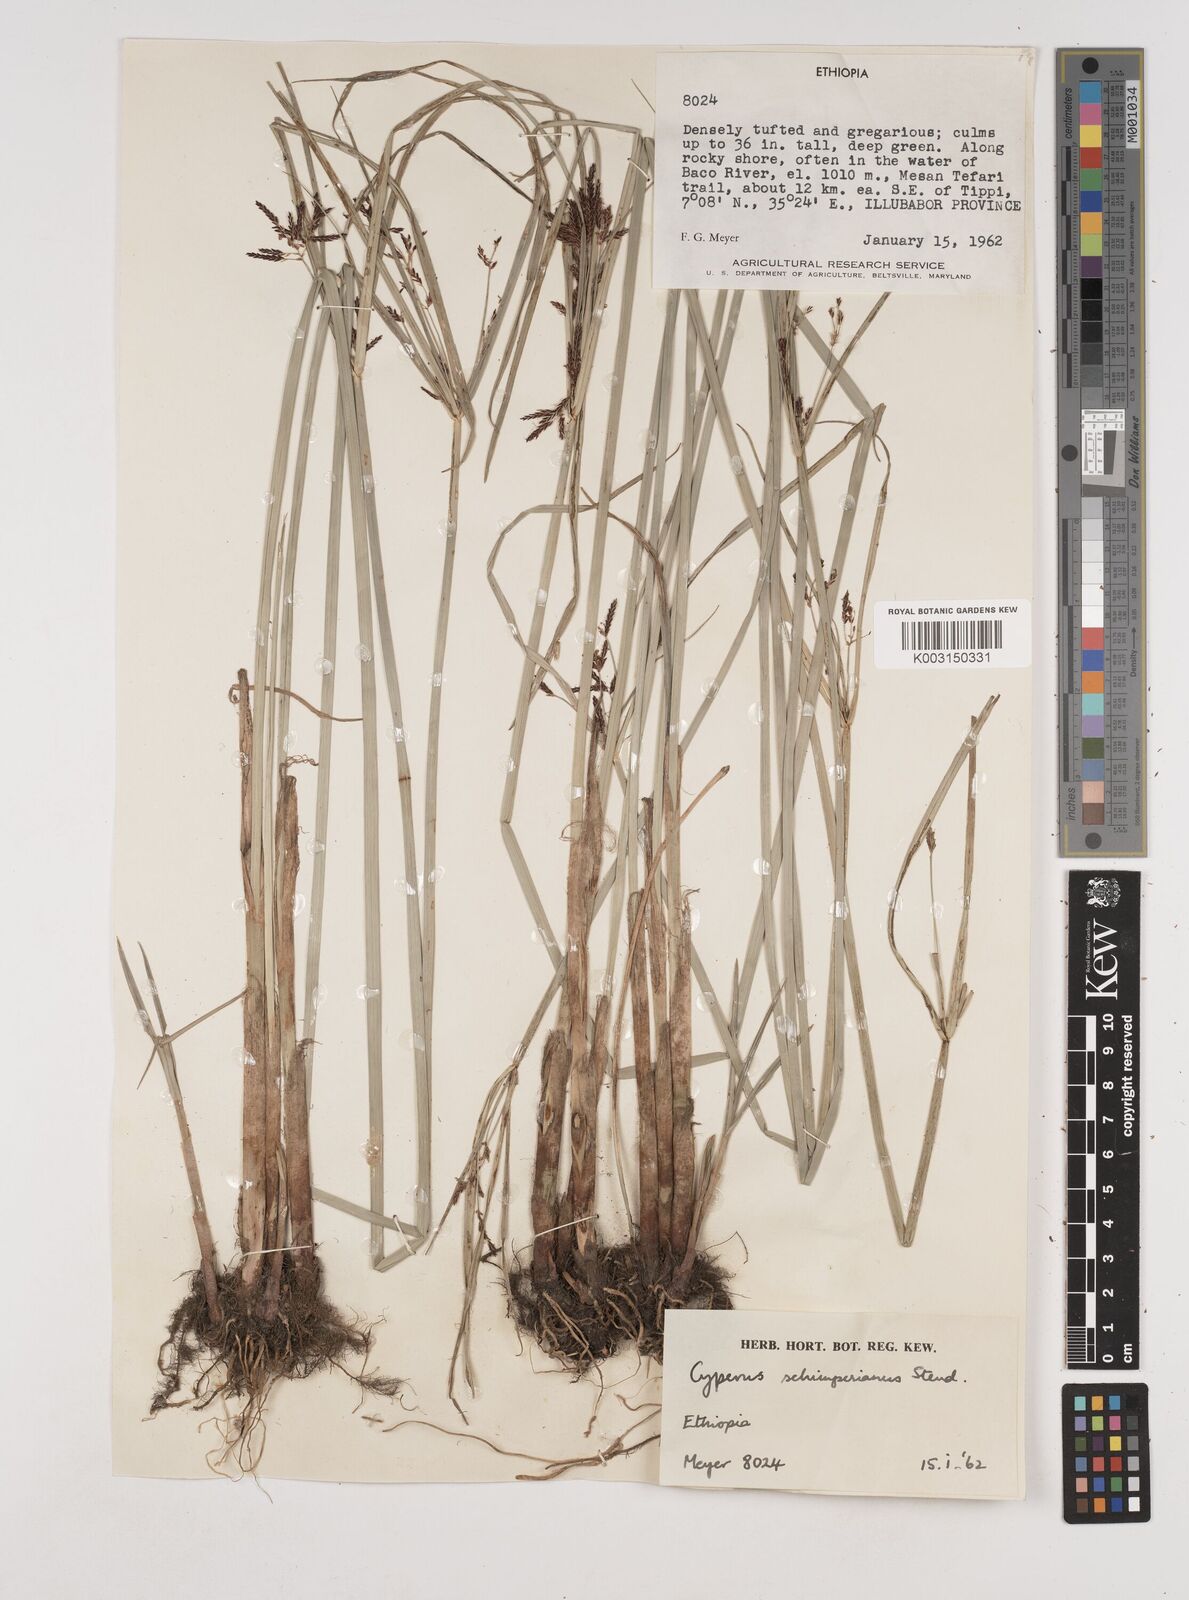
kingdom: Plantae
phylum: Tracheophyta
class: Liliopsida
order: Poales
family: Cyperaceae
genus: Cyperus
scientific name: Cyperus schimperianus
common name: Schimper flatsedge
